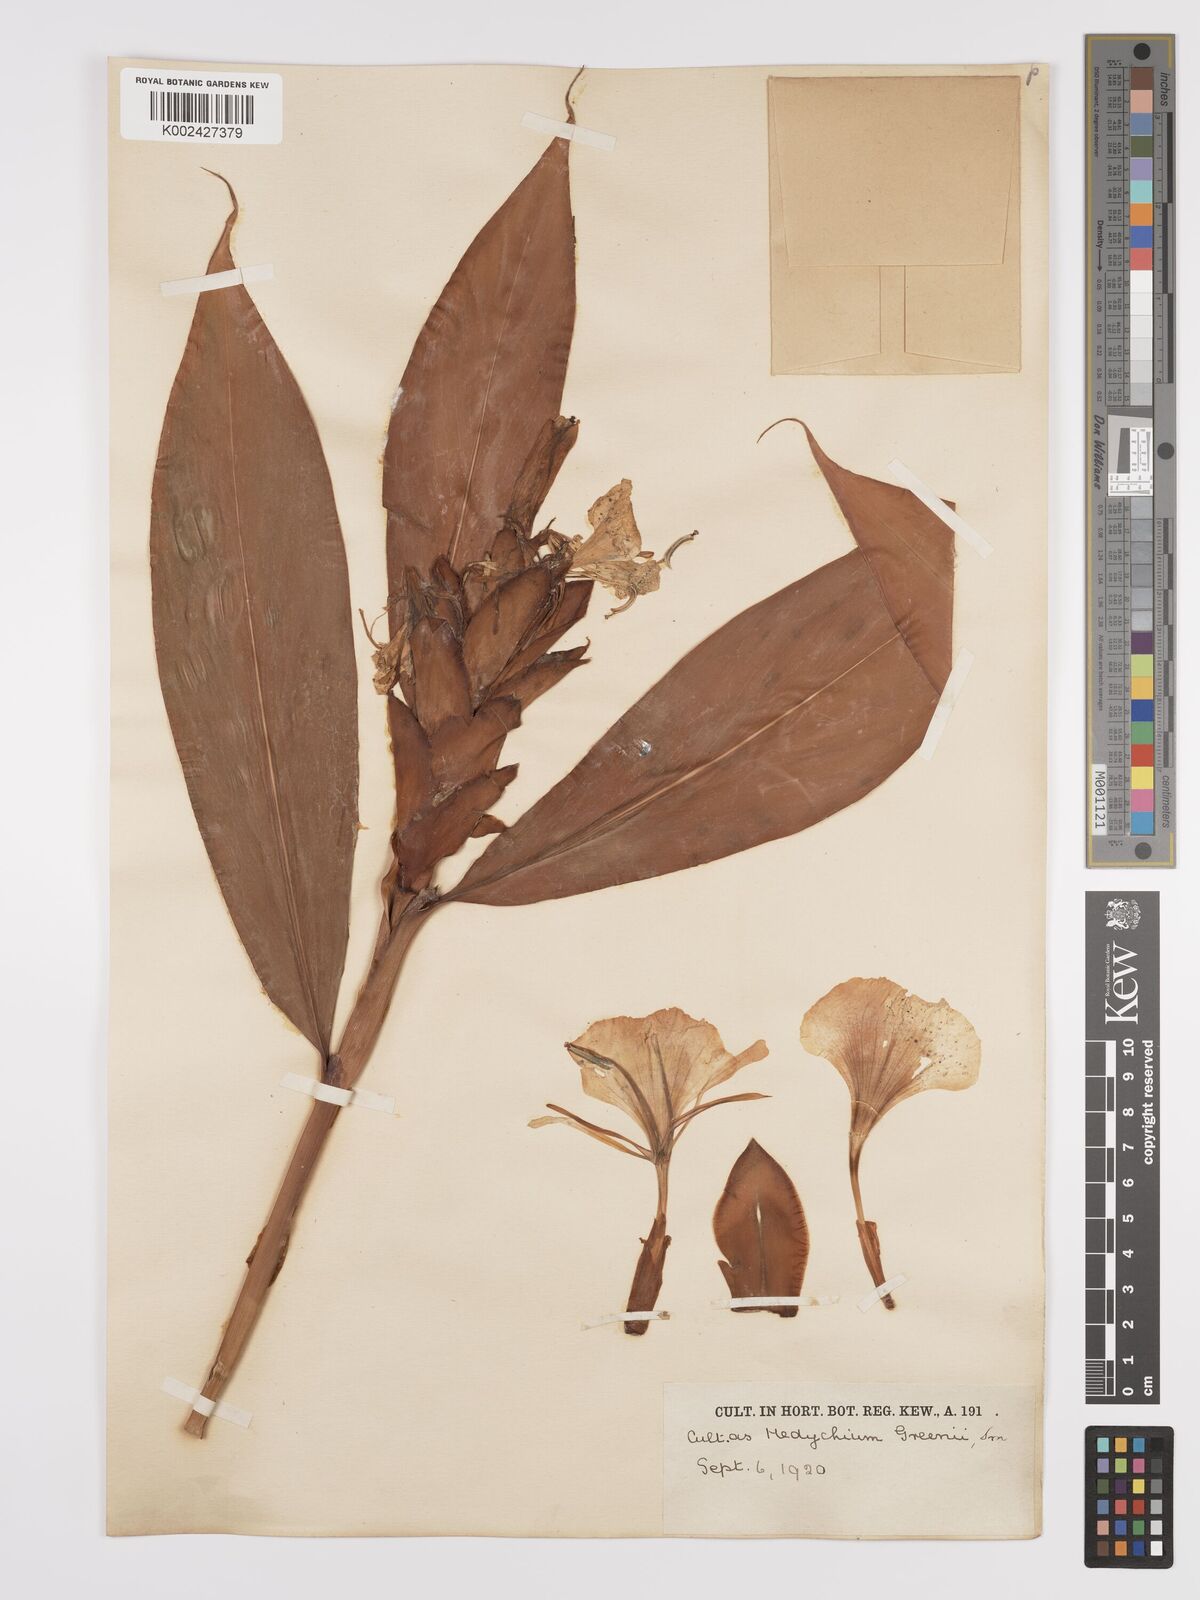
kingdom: Plantae
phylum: Tracheophyta
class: Liliopsida
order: Zingiberales
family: Zingiberaceae
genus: Hedychium
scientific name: Hedychium greenii
